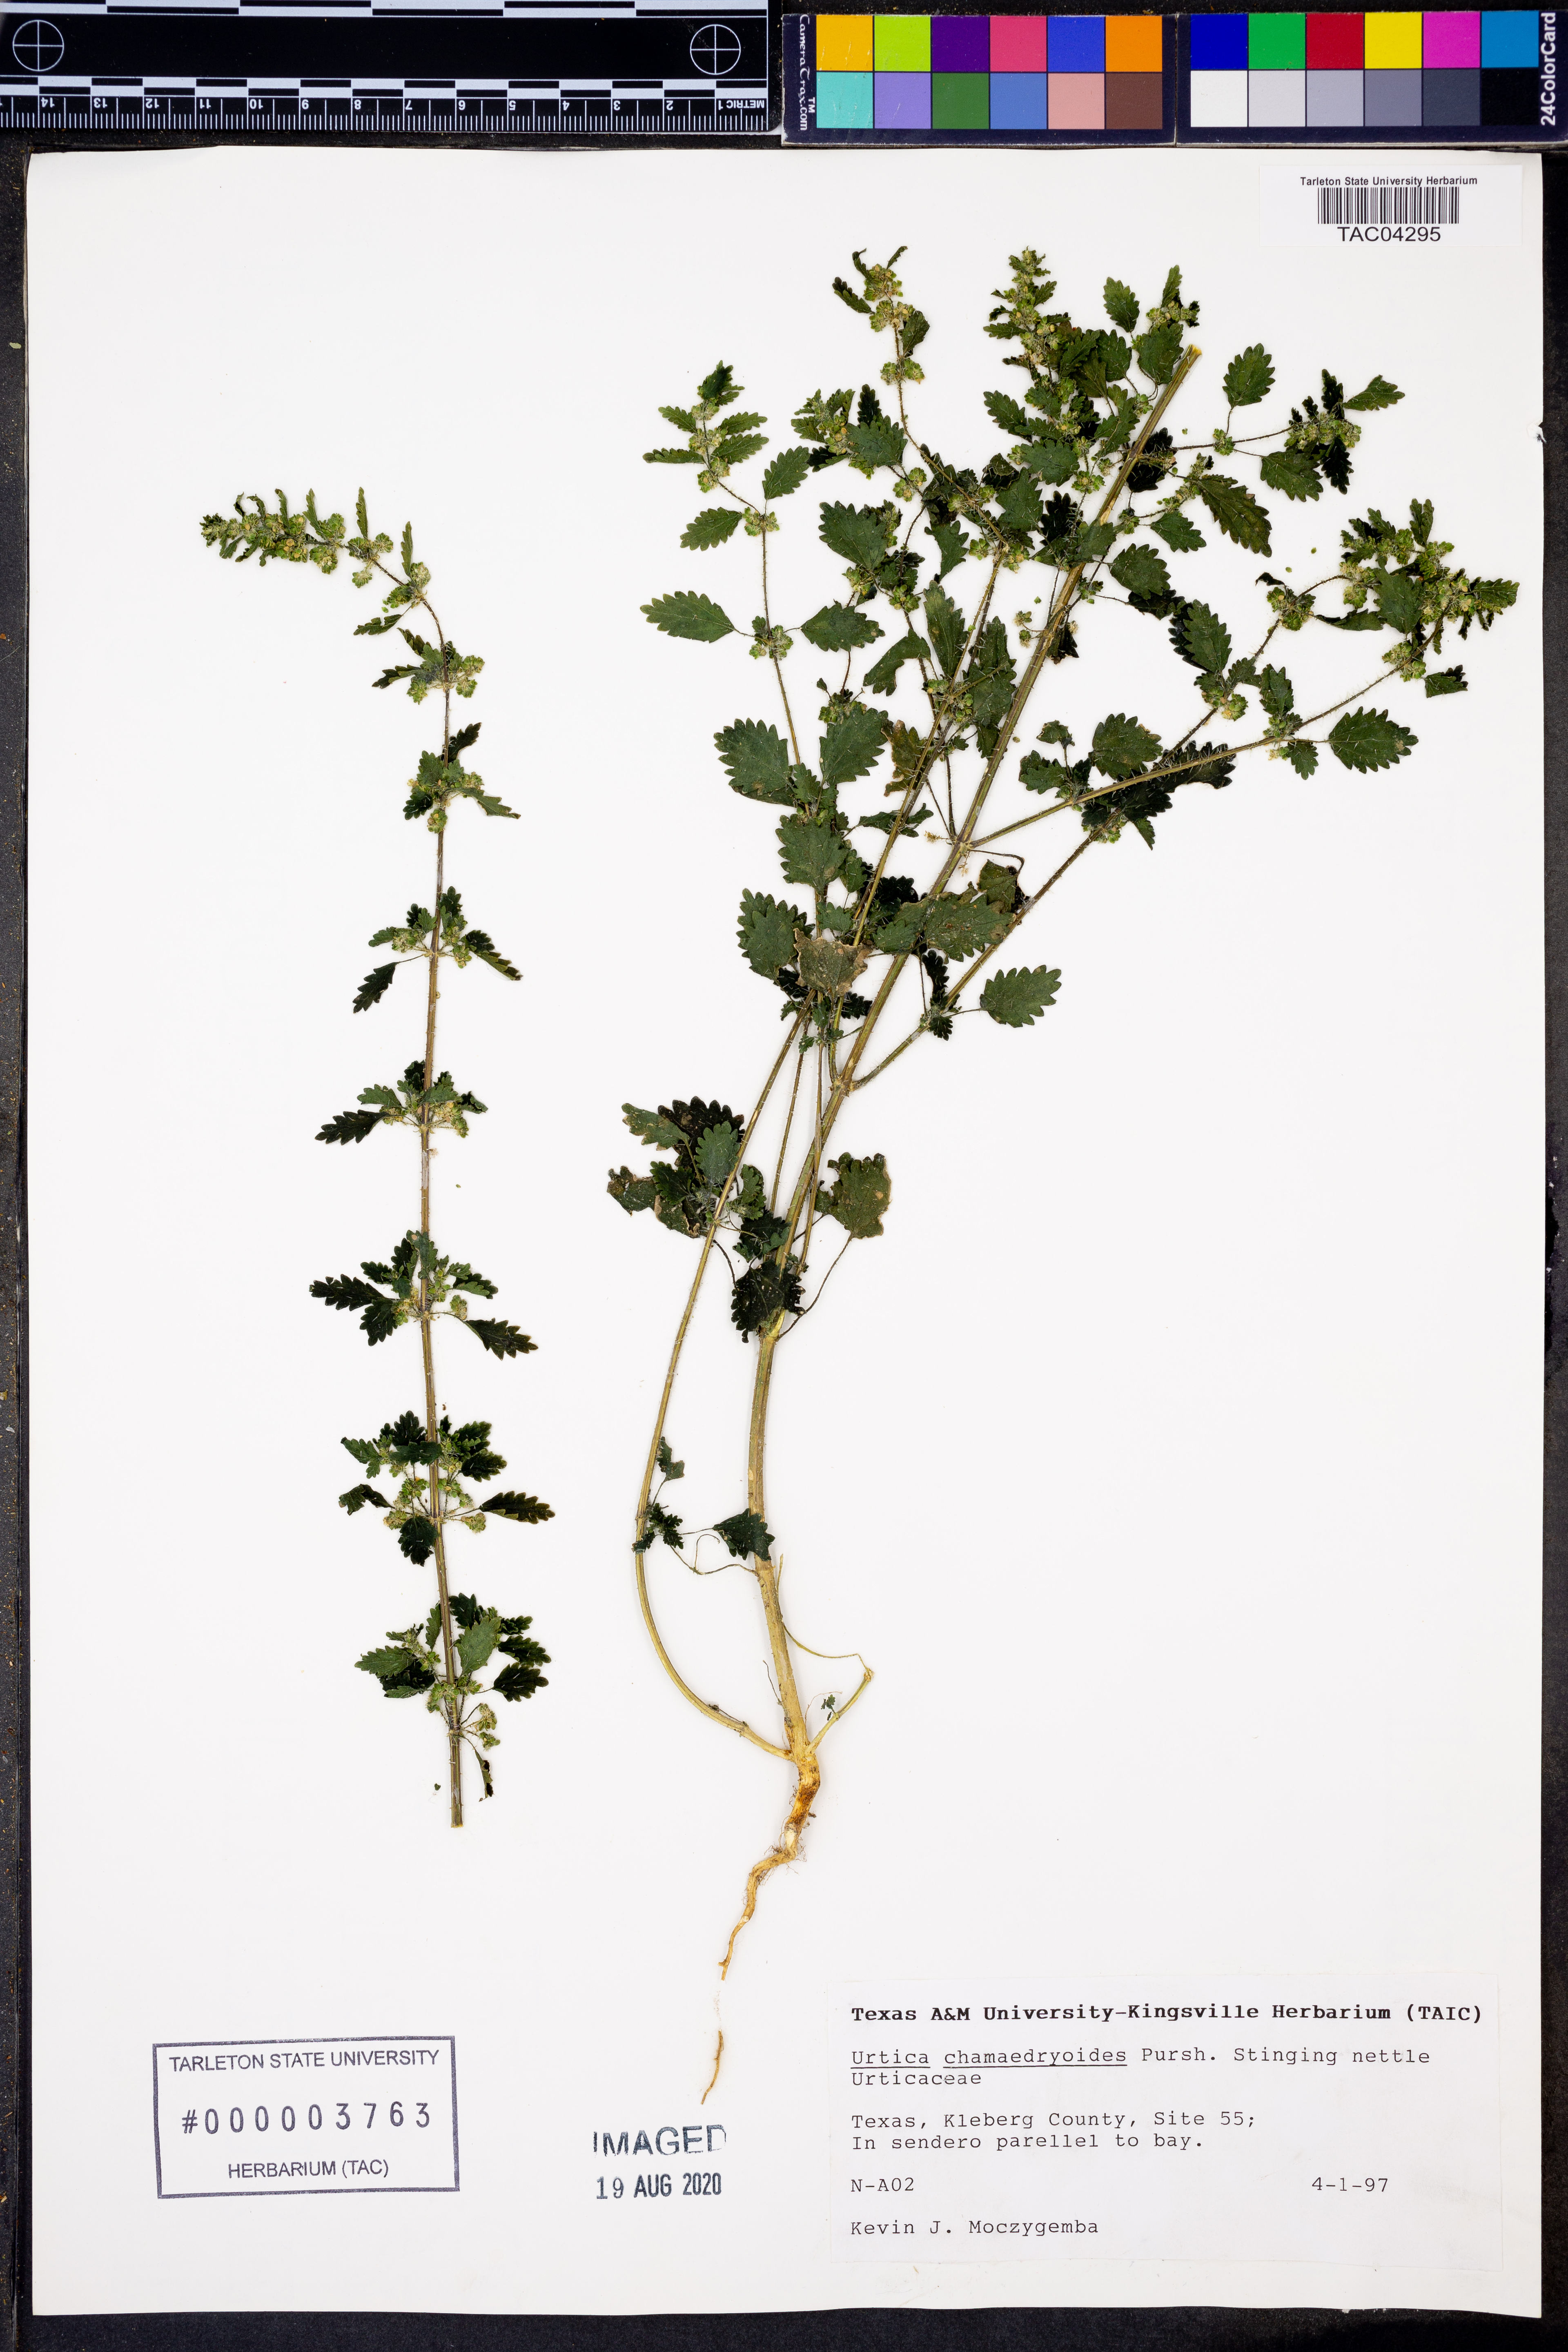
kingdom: Plantae
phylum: Tracheophyta
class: Magnoliopsida
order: Rosales
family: Urticaceae
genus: Urtica
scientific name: Urtica chamaedryoides
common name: Heart-leaf nettle
